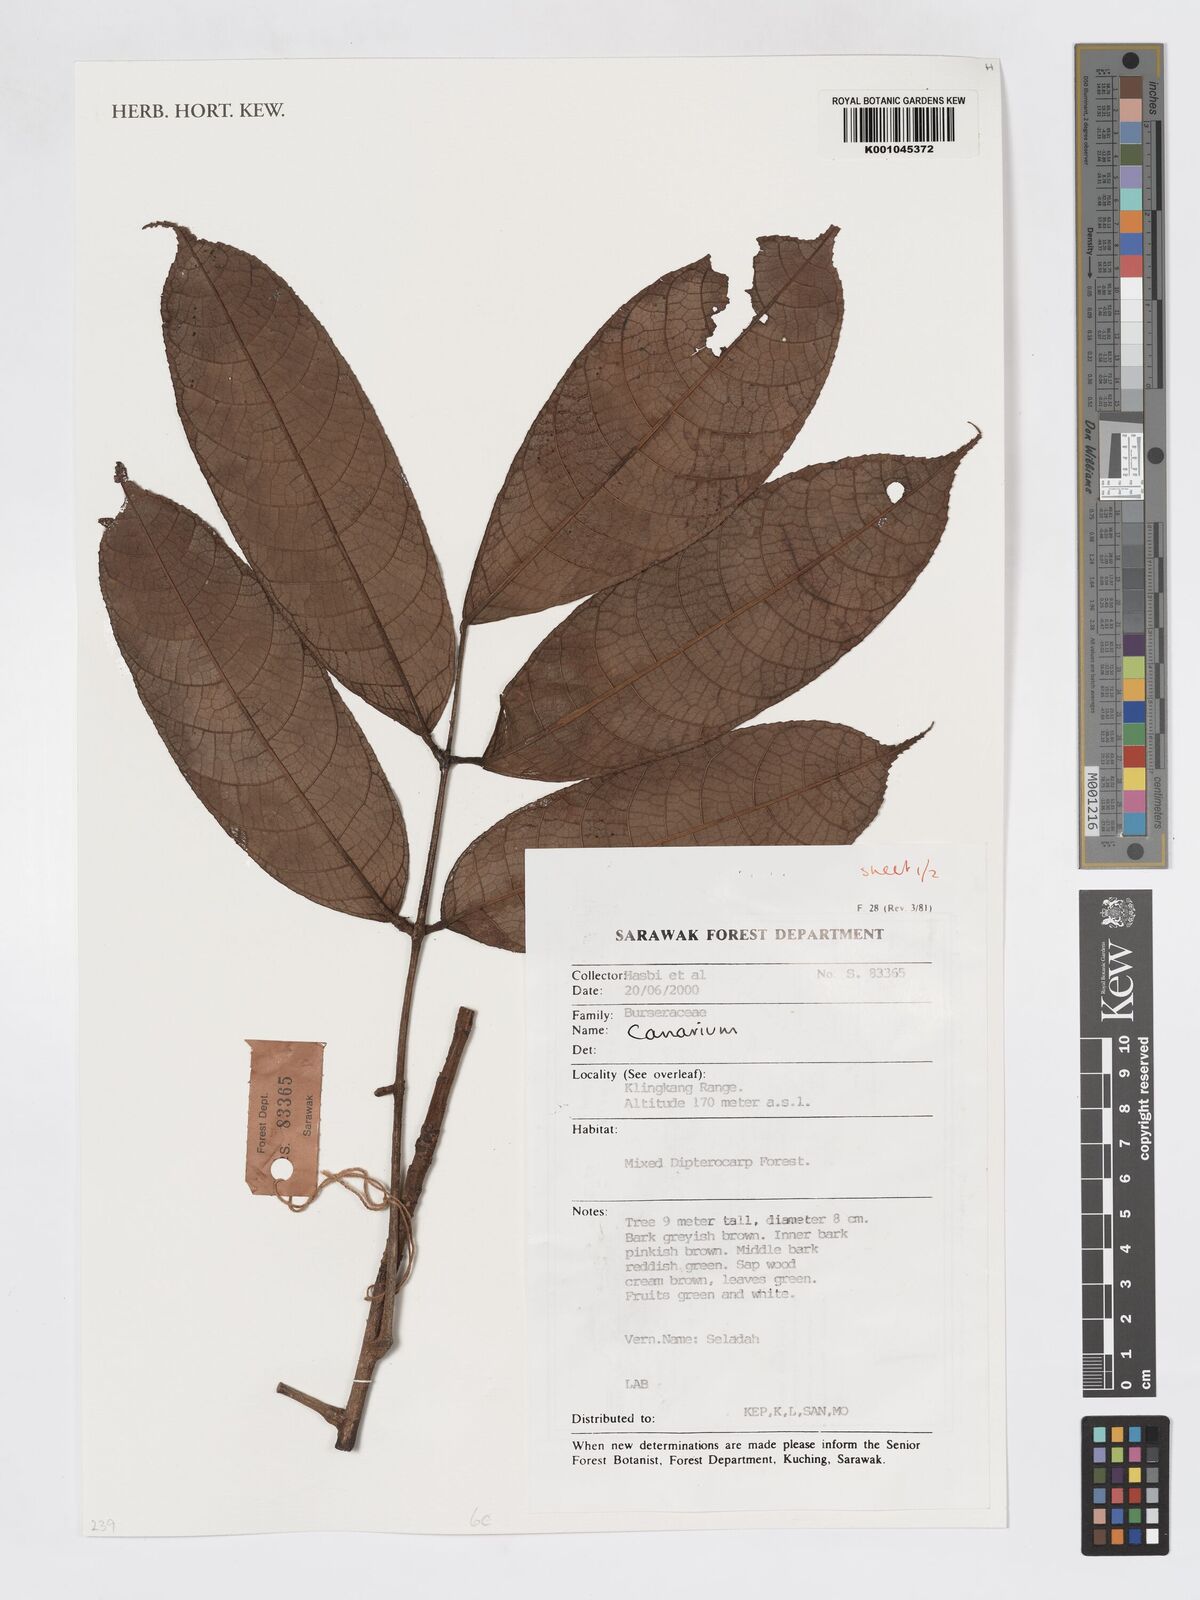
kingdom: Plantae
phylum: Tracheophyta
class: Magnoliopsida
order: Sapindales
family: Burseraceae
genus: Canarium
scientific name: Canarium
